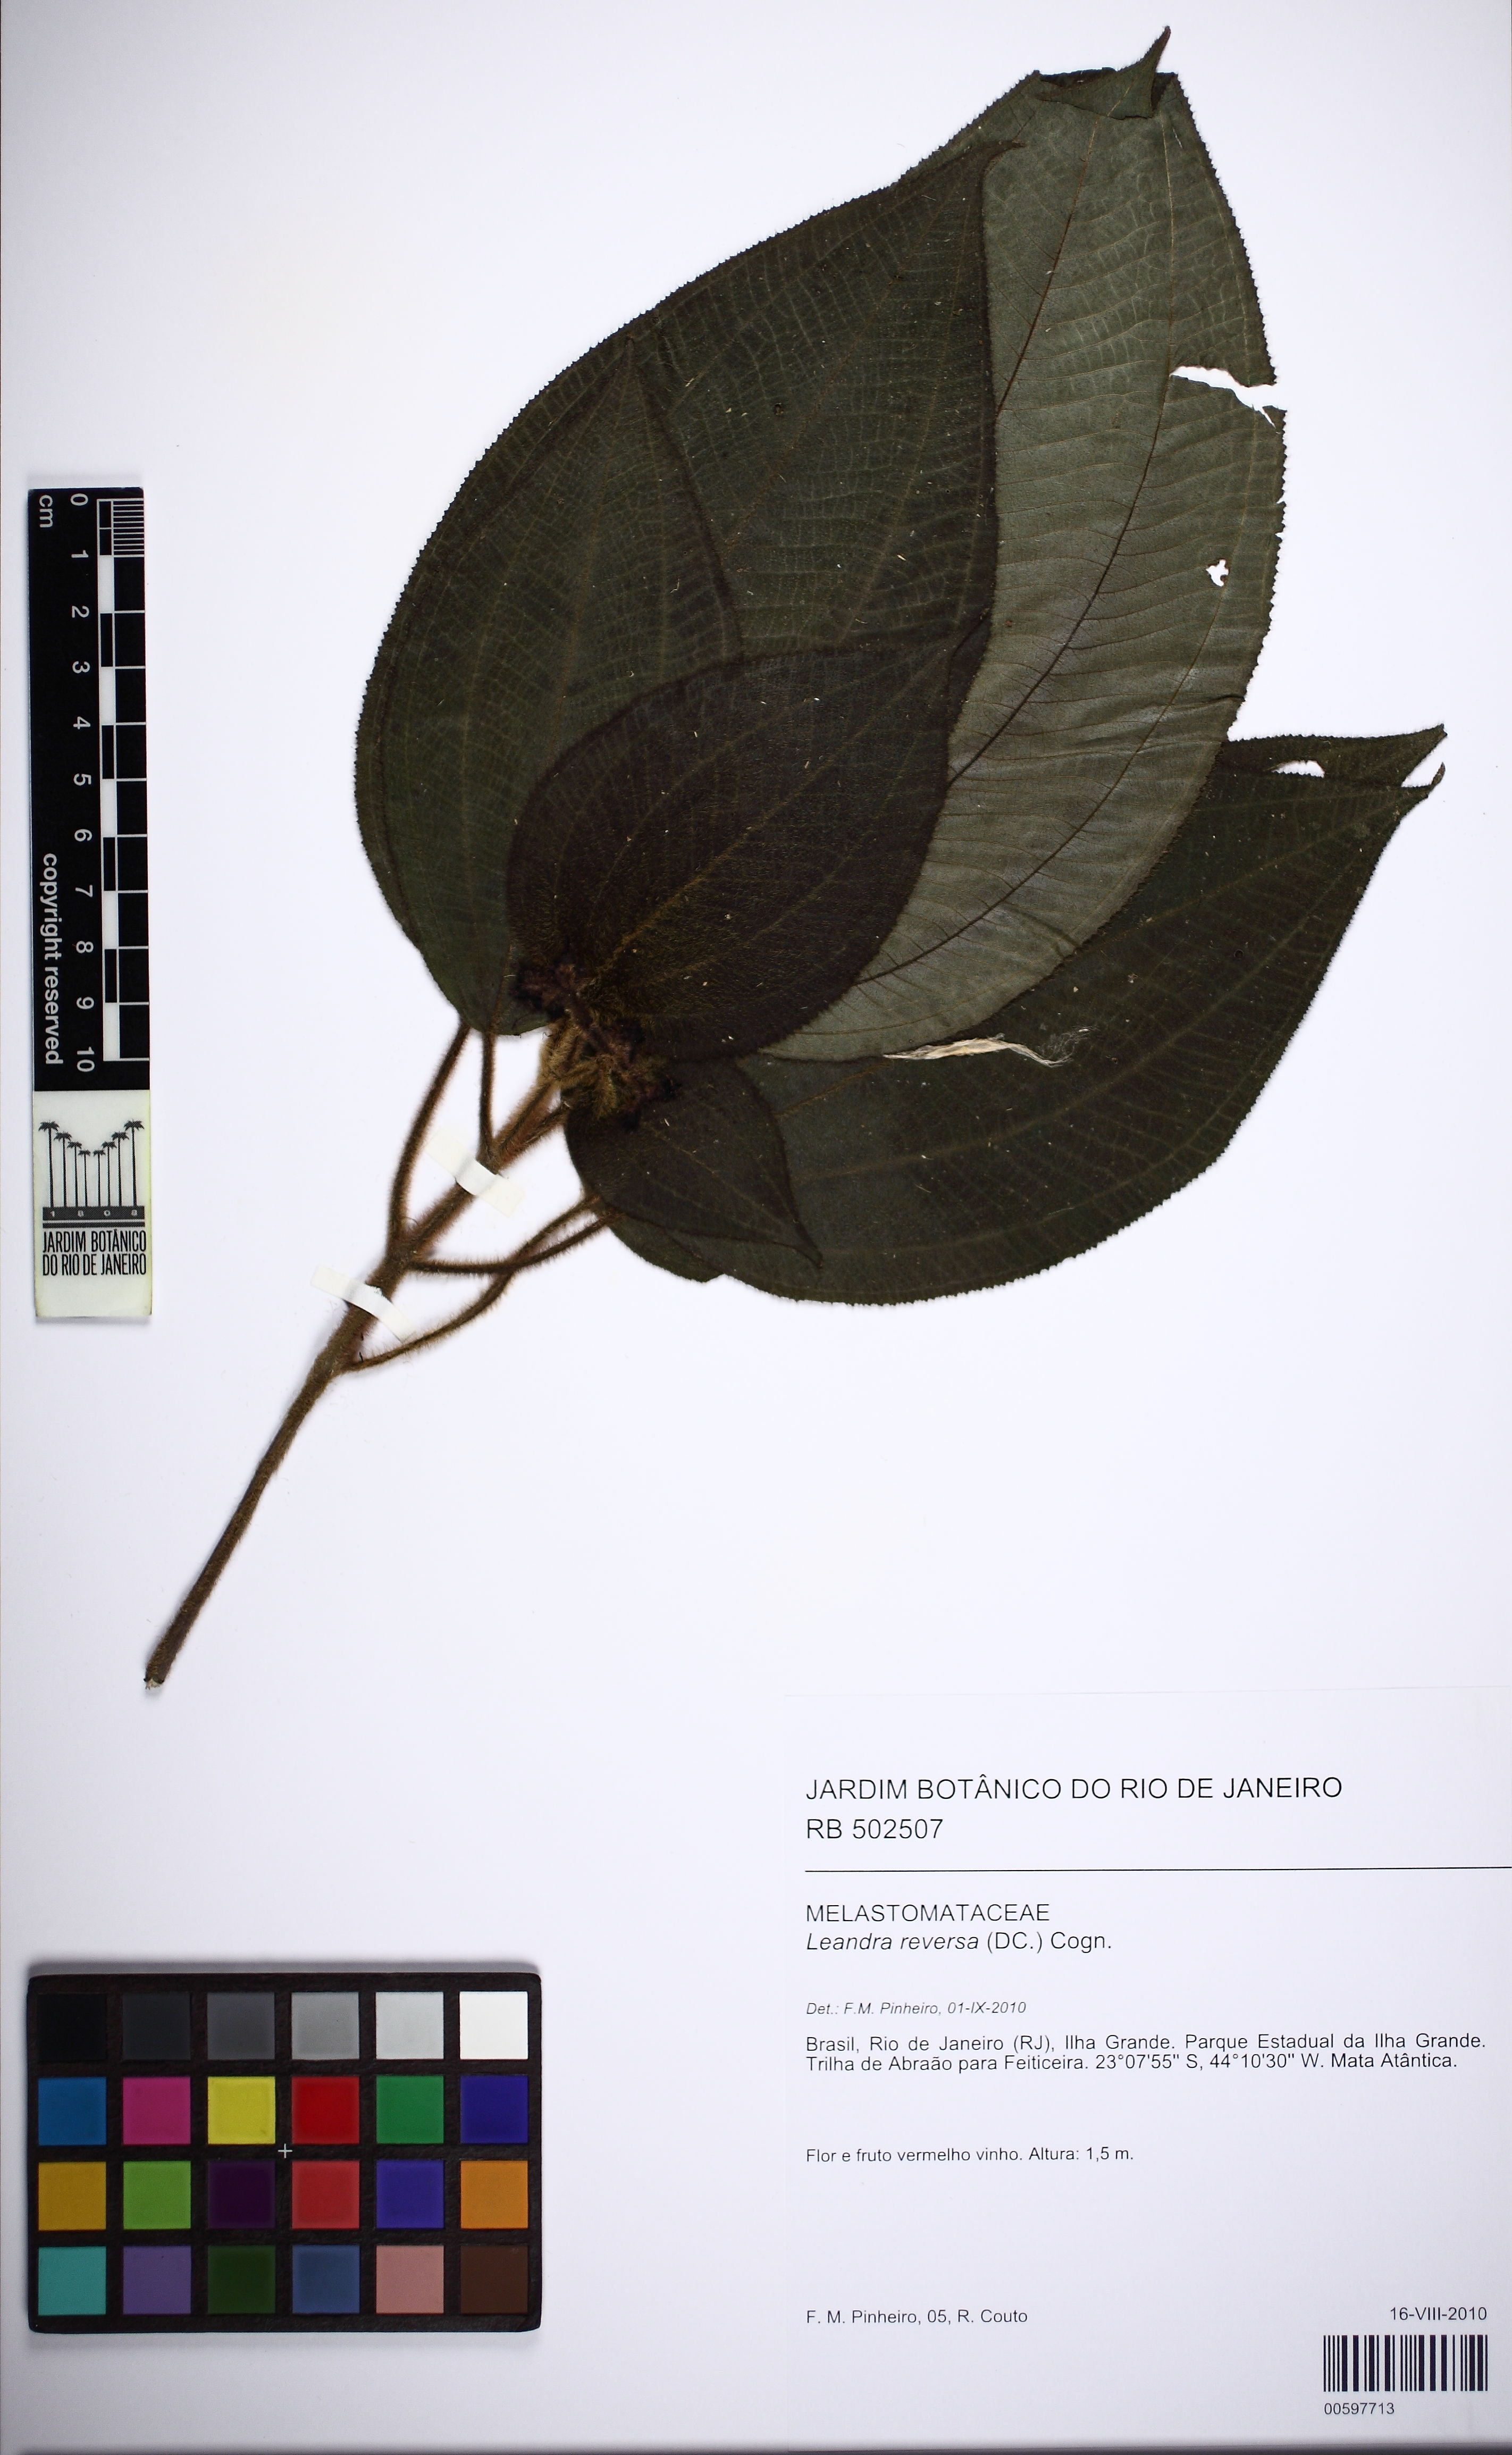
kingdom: Plantae
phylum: Tracheophyta
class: Magnoliopsida
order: Myrtales
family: Melastomataceae
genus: Miconia
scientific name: Miconia reversa
